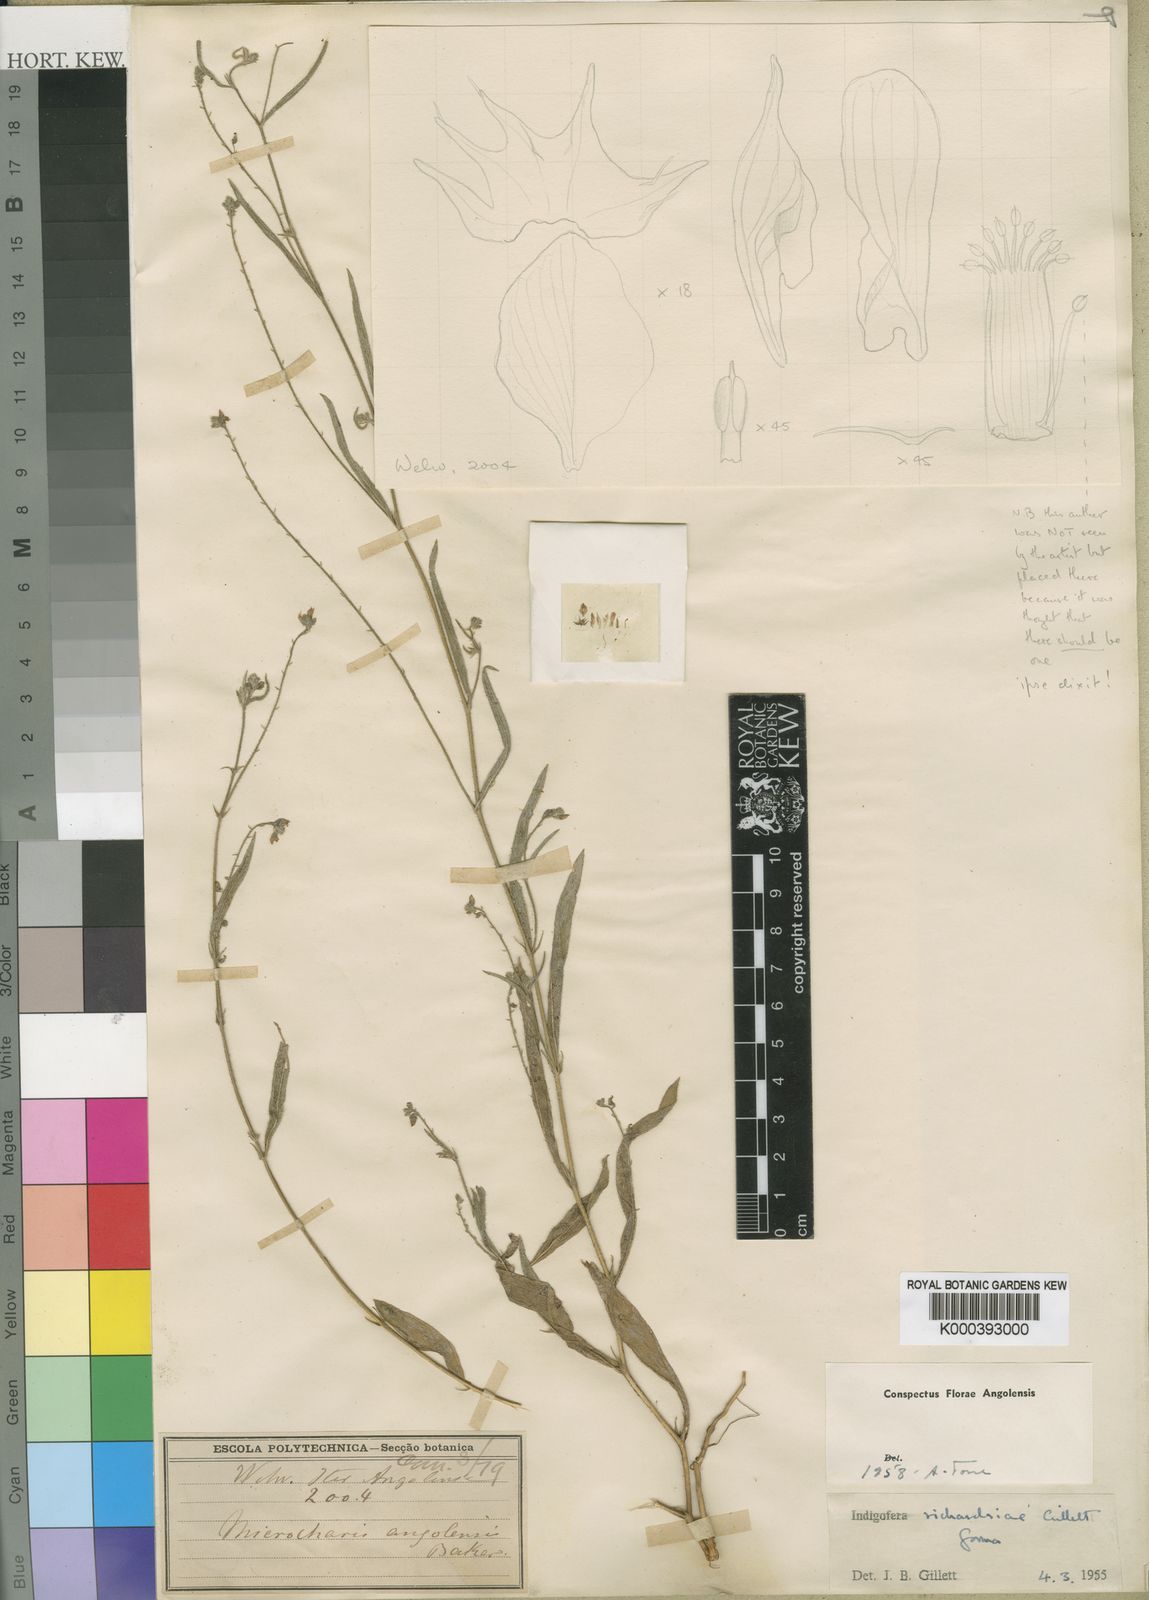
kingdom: Plantae
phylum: Tracheophyta
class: Magnoliopsida
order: Fabales
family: Fabaceae
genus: Indigofera
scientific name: Indigofera richardsiae
